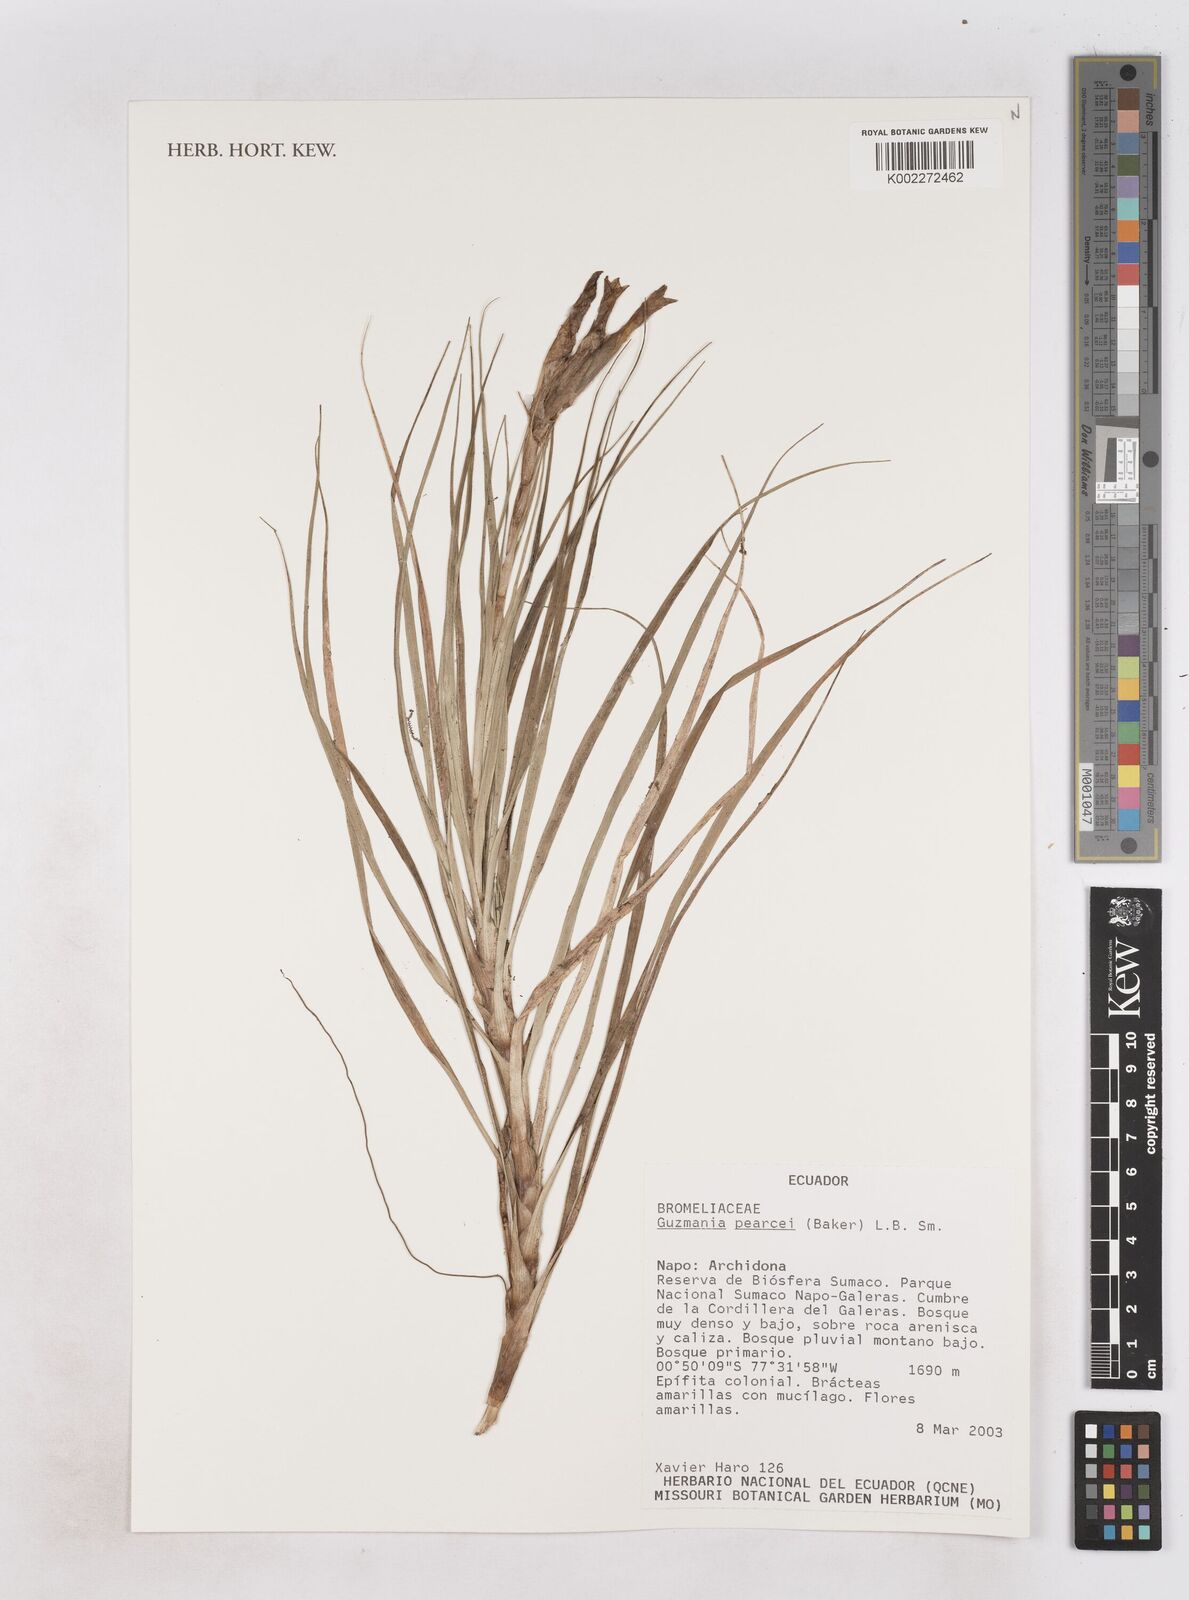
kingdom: Plantae
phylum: Tracheophyta
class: Liliopsida
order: Poales
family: Bromeliaceae
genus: Guzmania
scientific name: Guzmania pearcei
